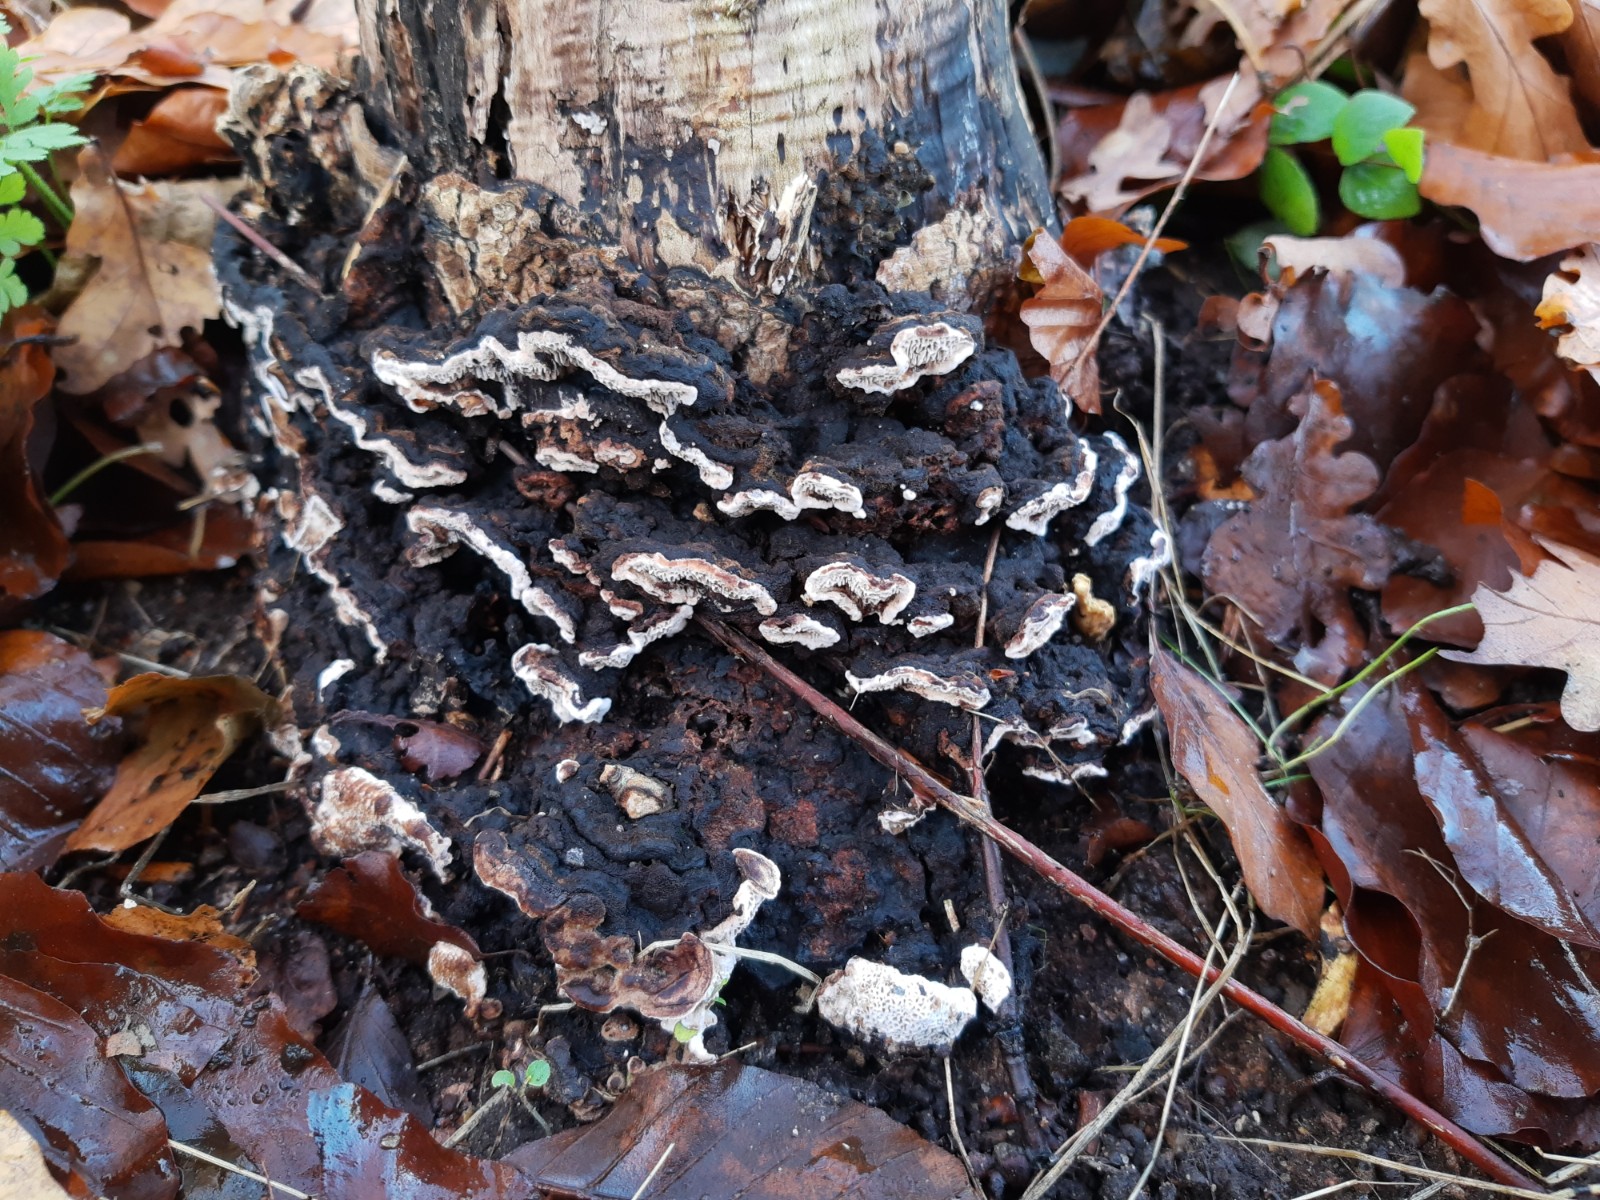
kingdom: Fungi
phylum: Basidiomycota
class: Agaricomycetes
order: Polyporales
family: Polyporaceae
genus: Podofomes
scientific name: Podofomes mollis
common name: blød begporesvamp
